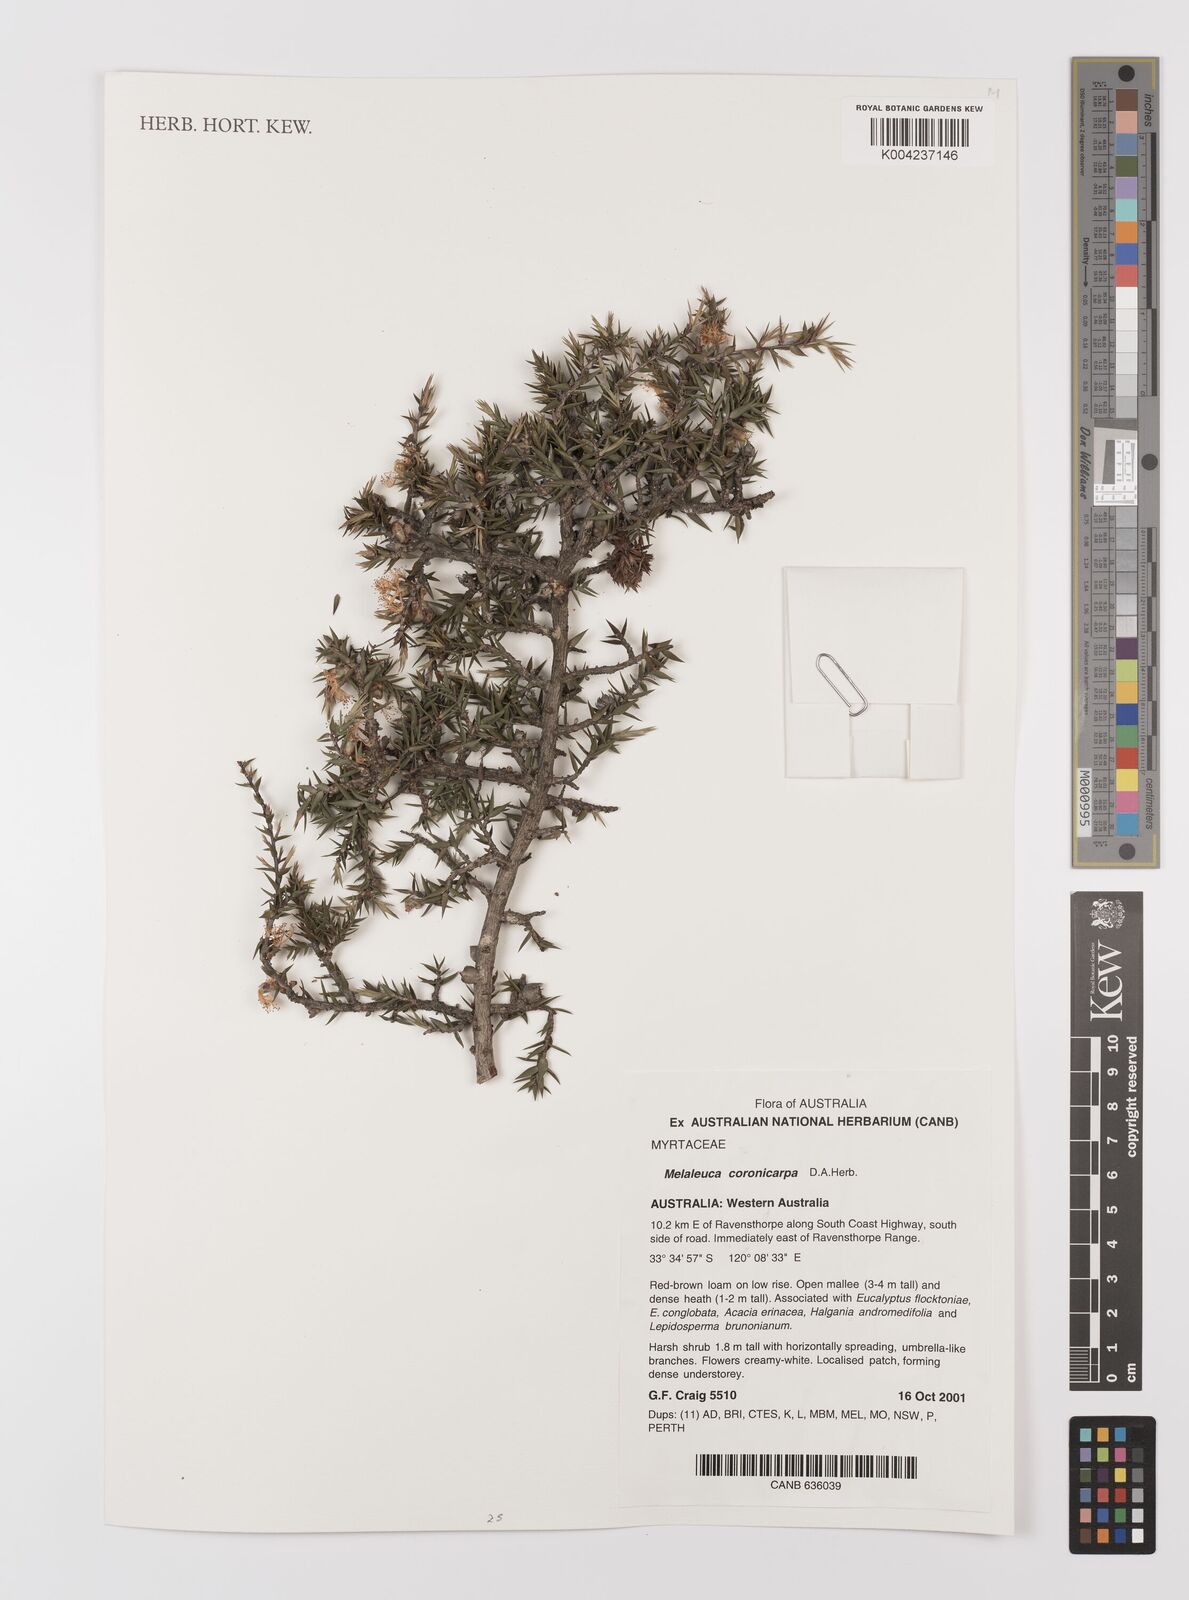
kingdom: Plantae
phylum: Tracheophyta
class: Magnoliopsida
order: Myrtales
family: Myrtaceae
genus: Melaleuca
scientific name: Melaleuca coronicarpa
